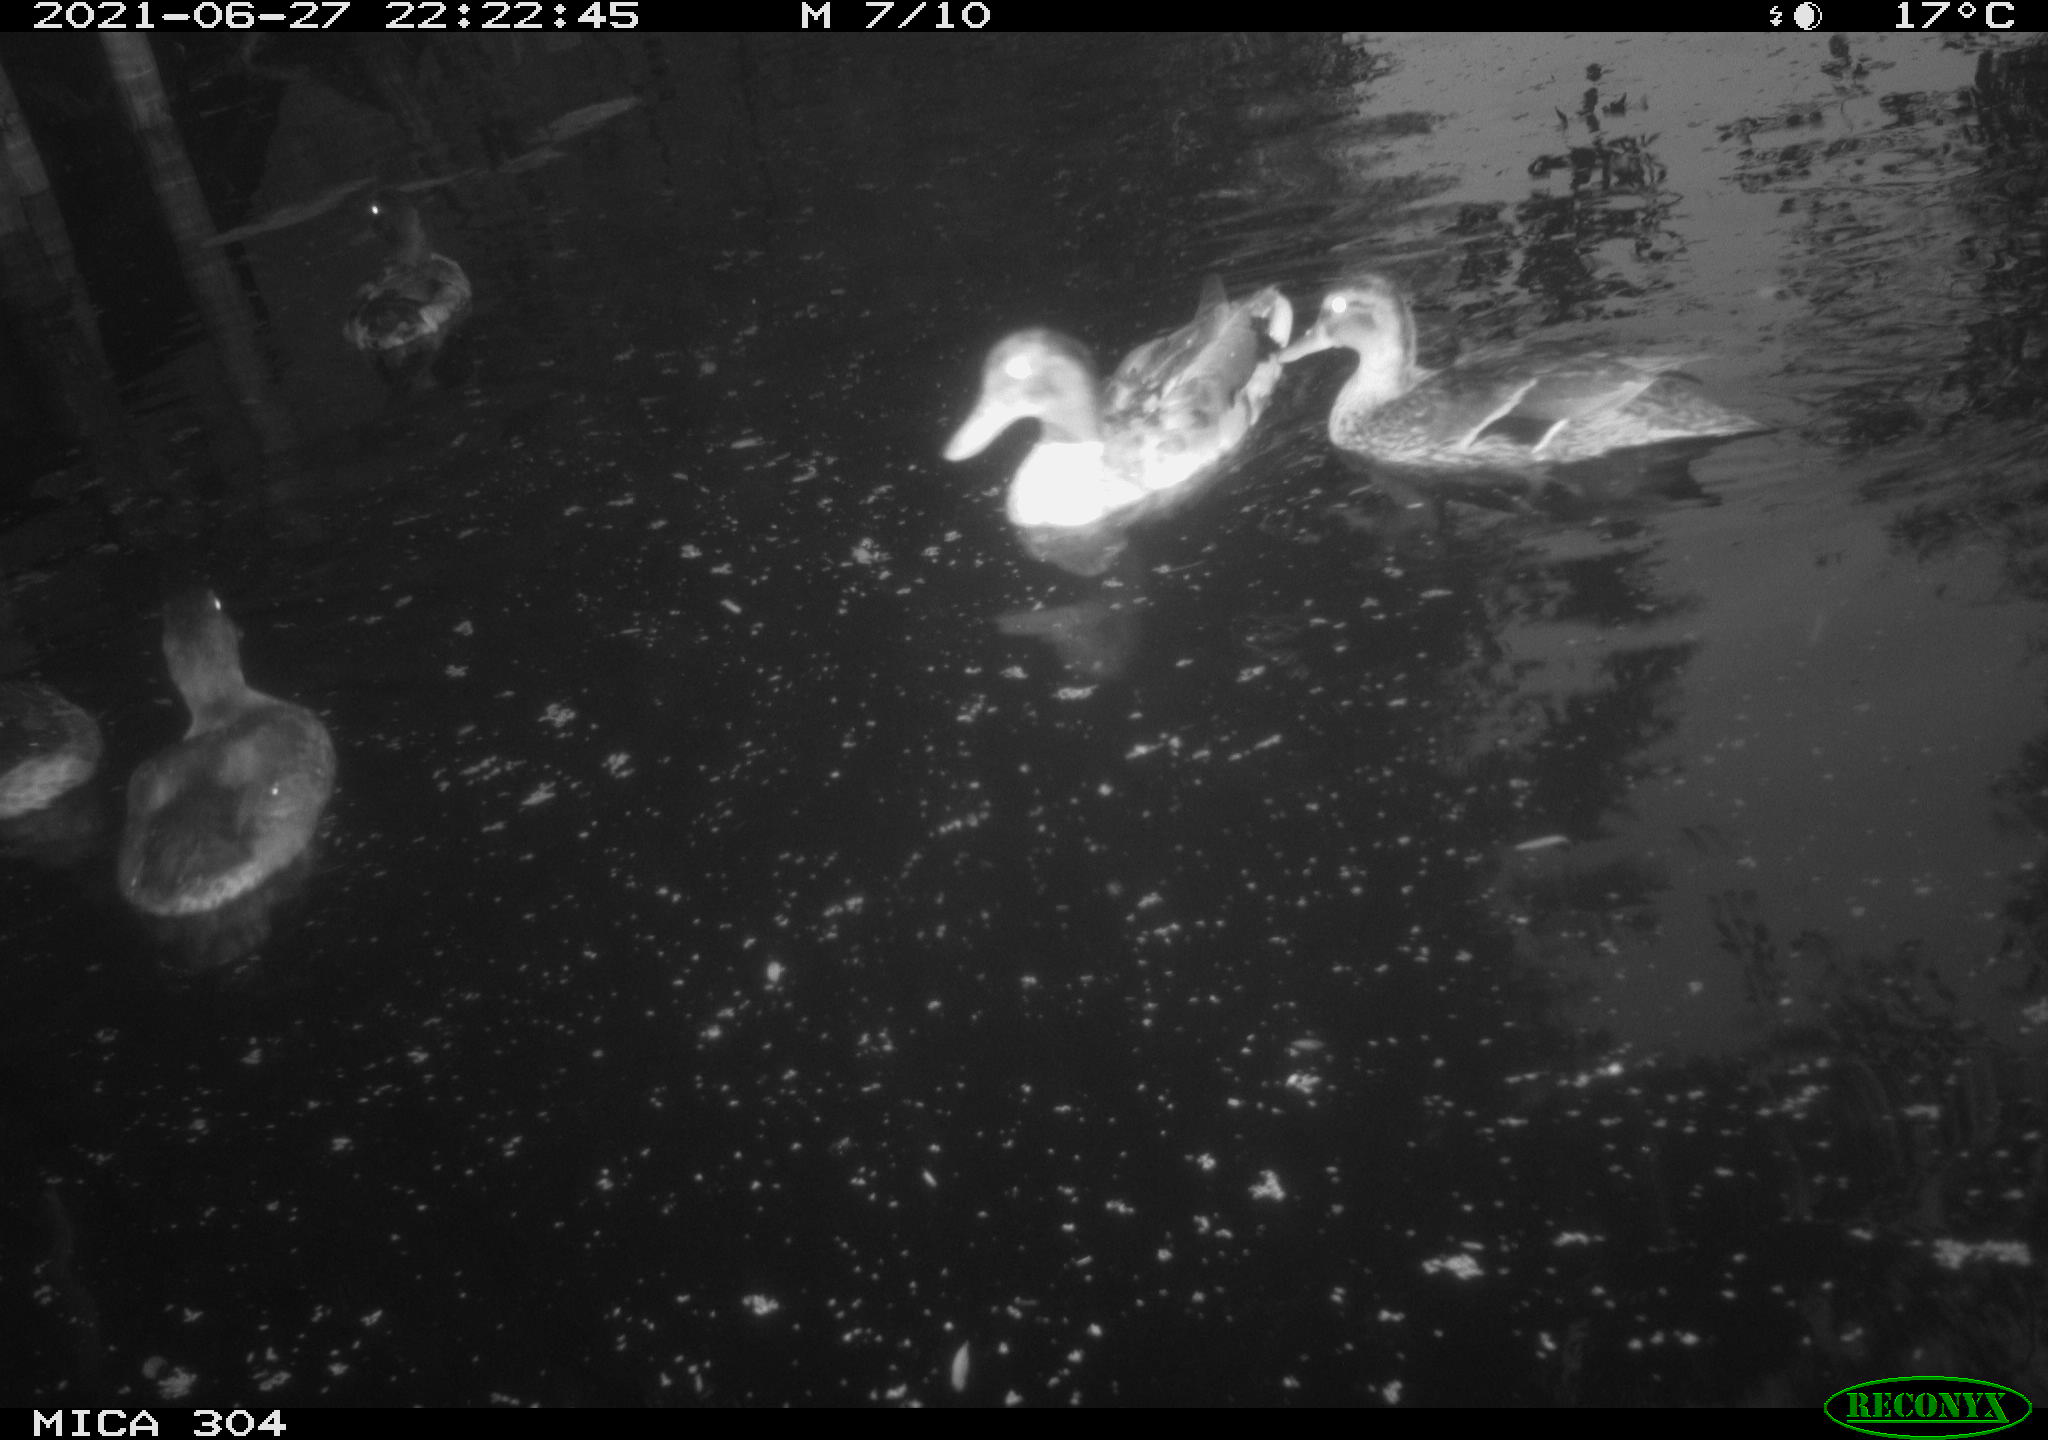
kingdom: Animalia
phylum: Chordata
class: Aves
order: Anseriformes
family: Anatidae
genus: Mareca
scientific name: Mareca strepera
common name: Gadwall
